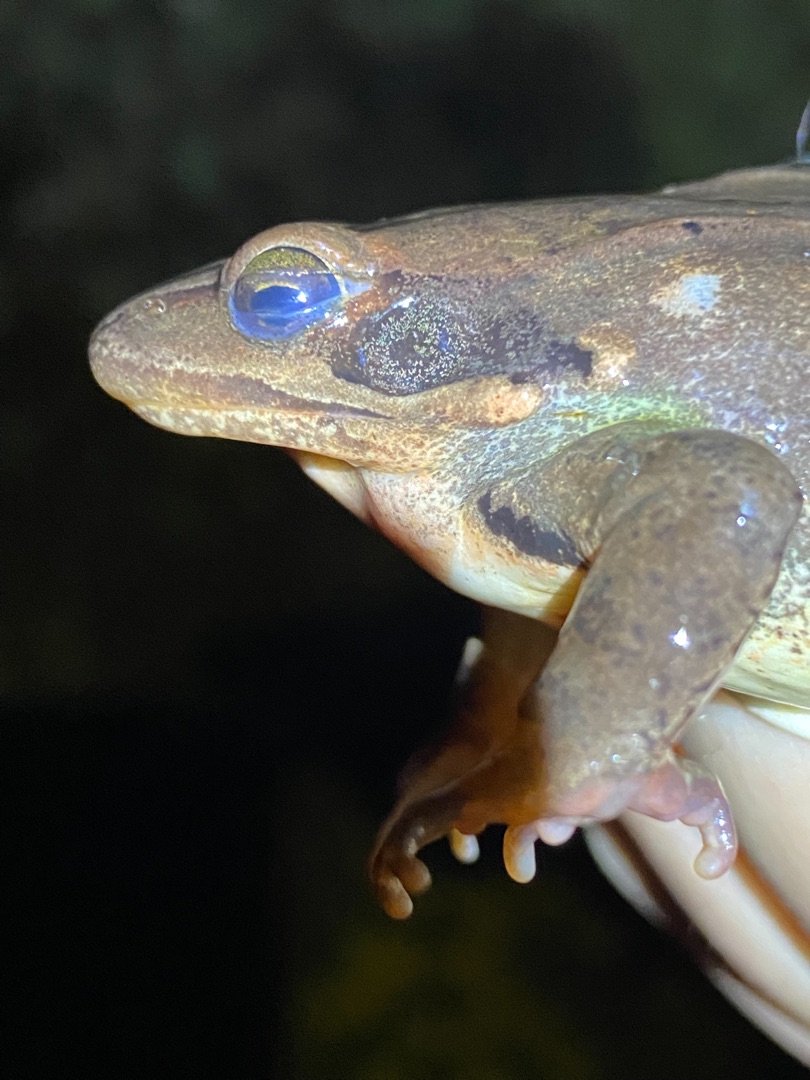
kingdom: Animalia
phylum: Chordata
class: Amphibia
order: Anura
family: Ranidae
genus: Rana
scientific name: Rana dalmatina
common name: Springfrø
